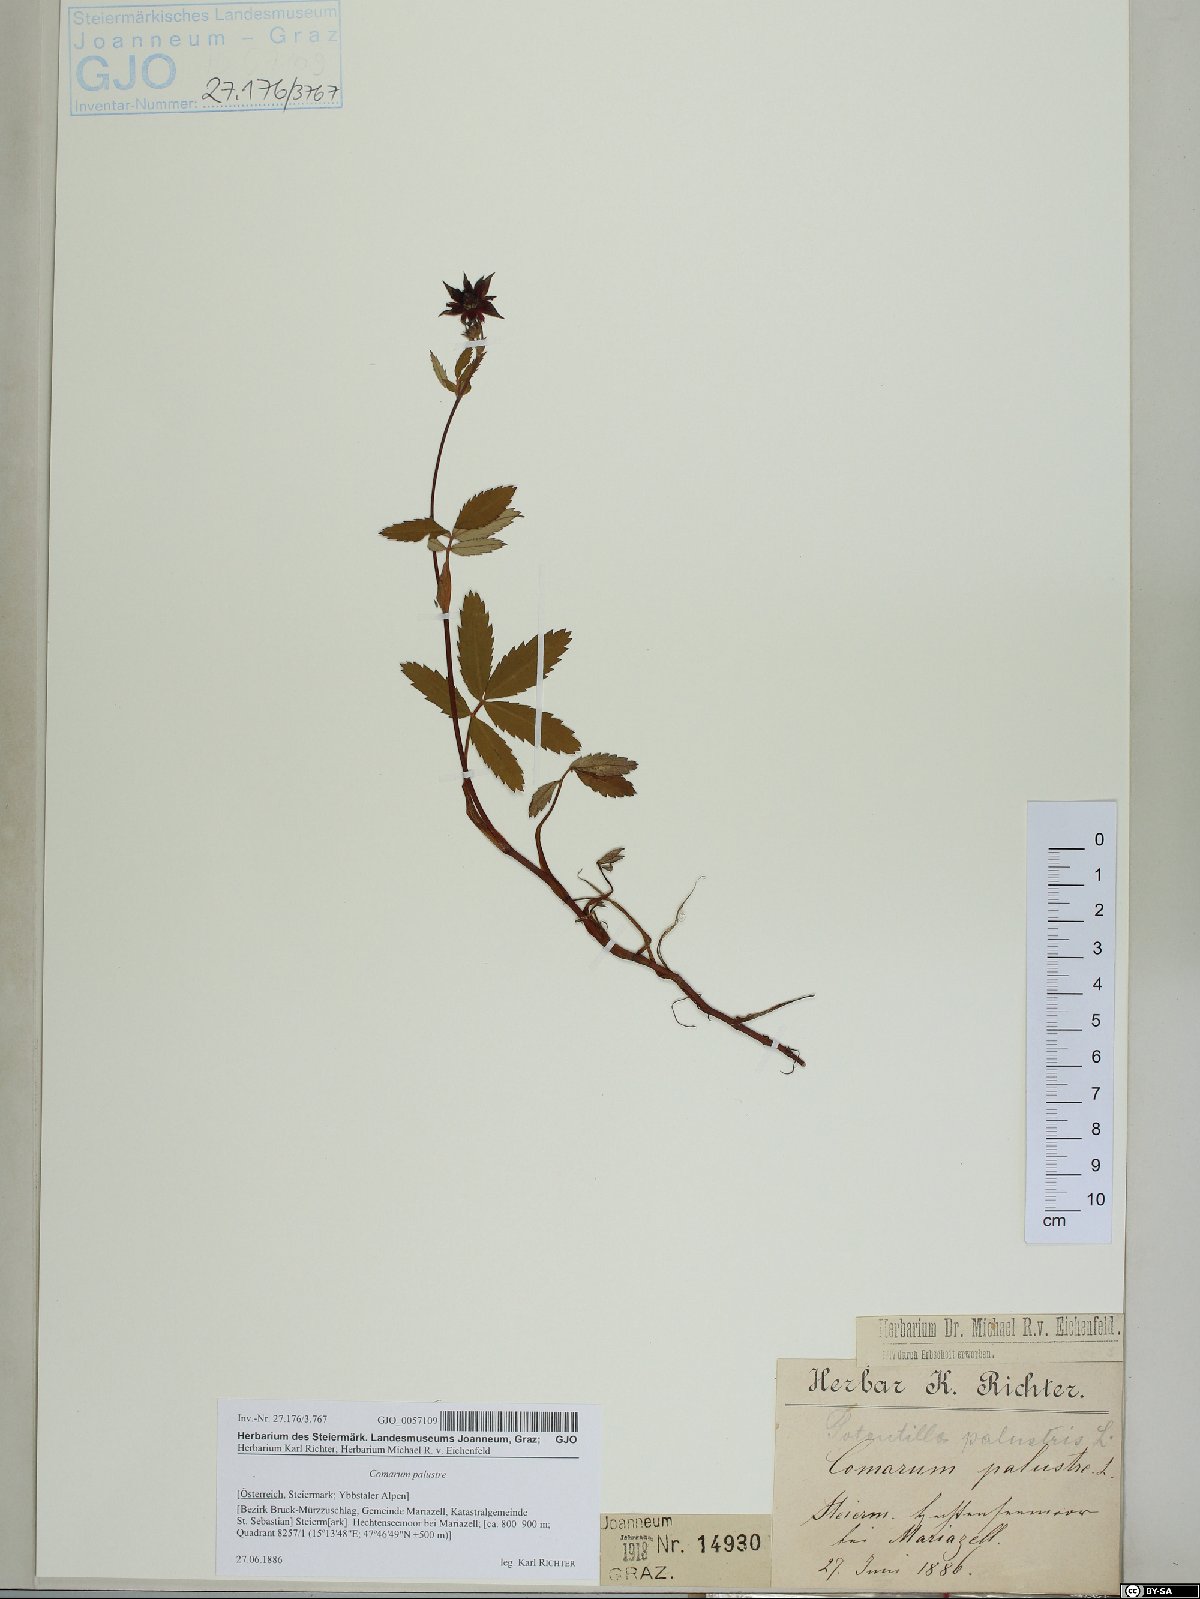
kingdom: Plantae
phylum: Tracheophyta
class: Magnoliopsida
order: Rosales
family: Rosaceae
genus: Comarum
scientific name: Comarum palustre
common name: Marsh cinquefoil
